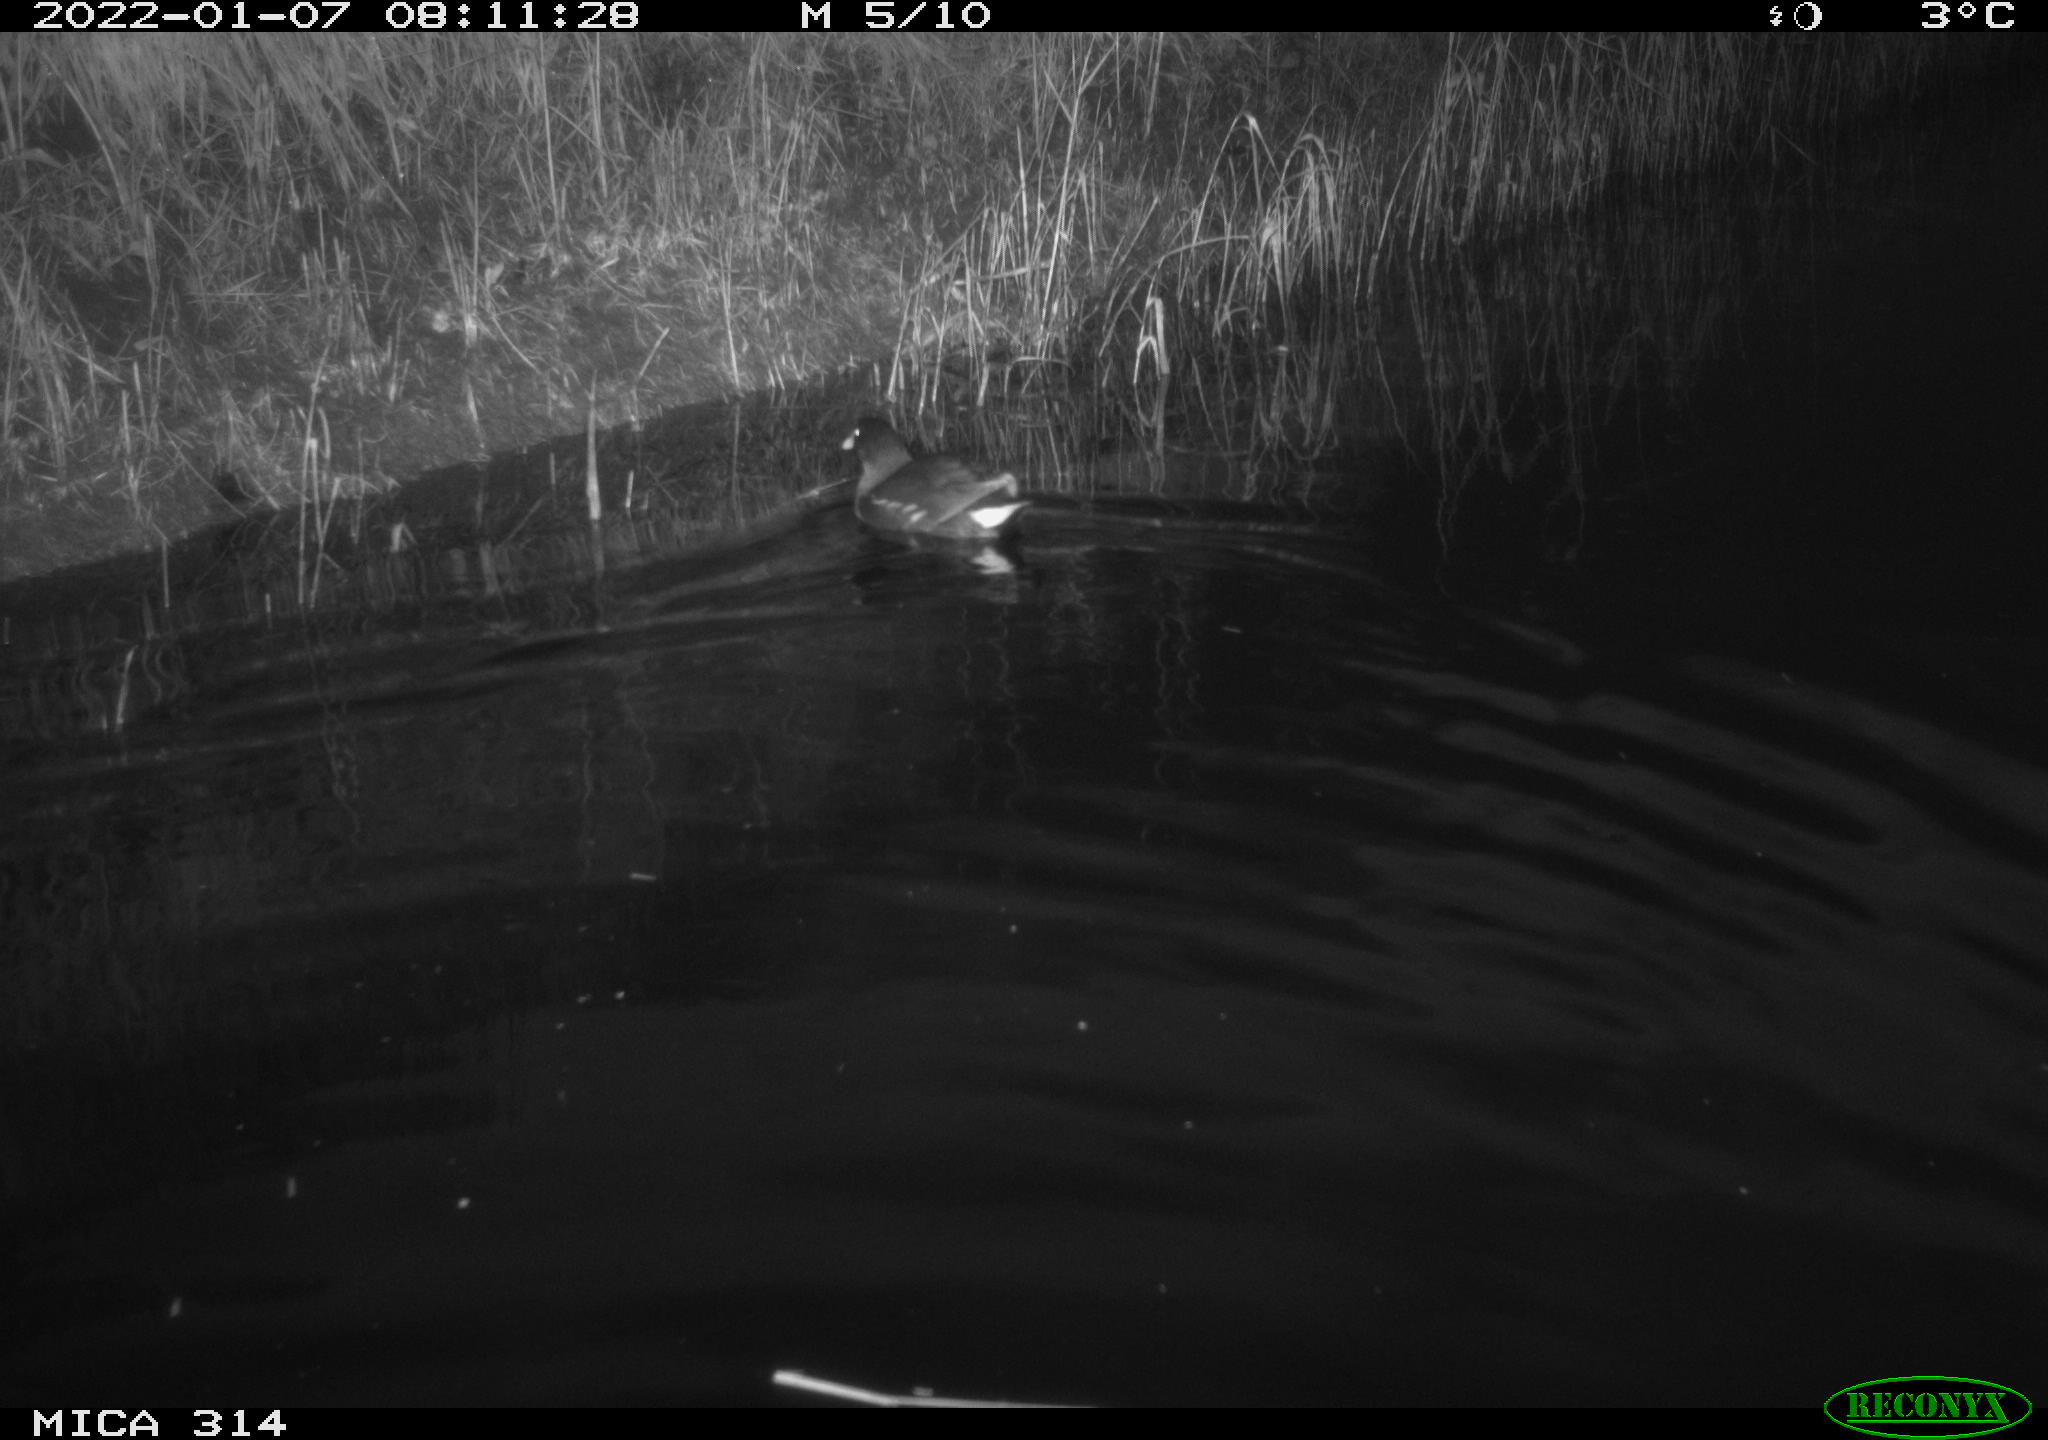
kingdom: Animalia
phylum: Chordata
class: Aves
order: Gruiformes
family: Rallidae
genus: Gallinula
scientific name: Gallinula chloropus
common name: Common moorhen
